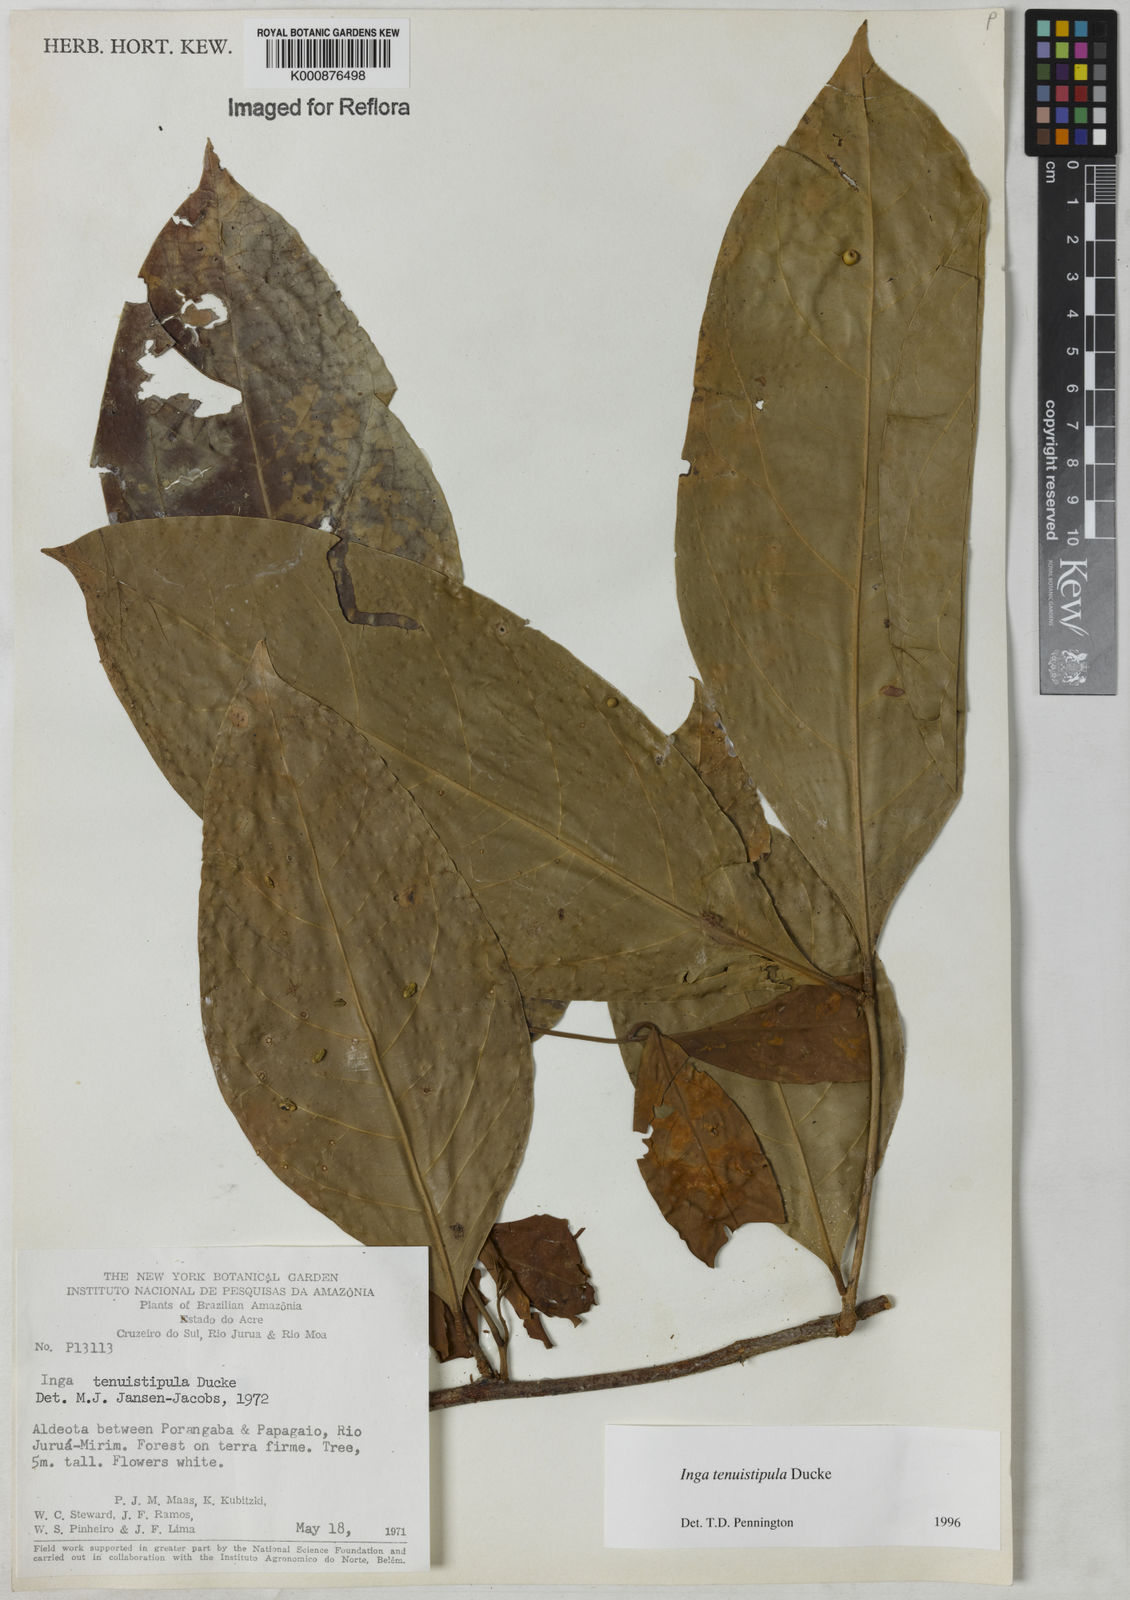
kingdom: Plantae
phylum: Tracheophyta
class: Magnoliopsida
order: Fabales
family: Fabaceae
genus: Inga
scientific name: Inga tenuistipula
